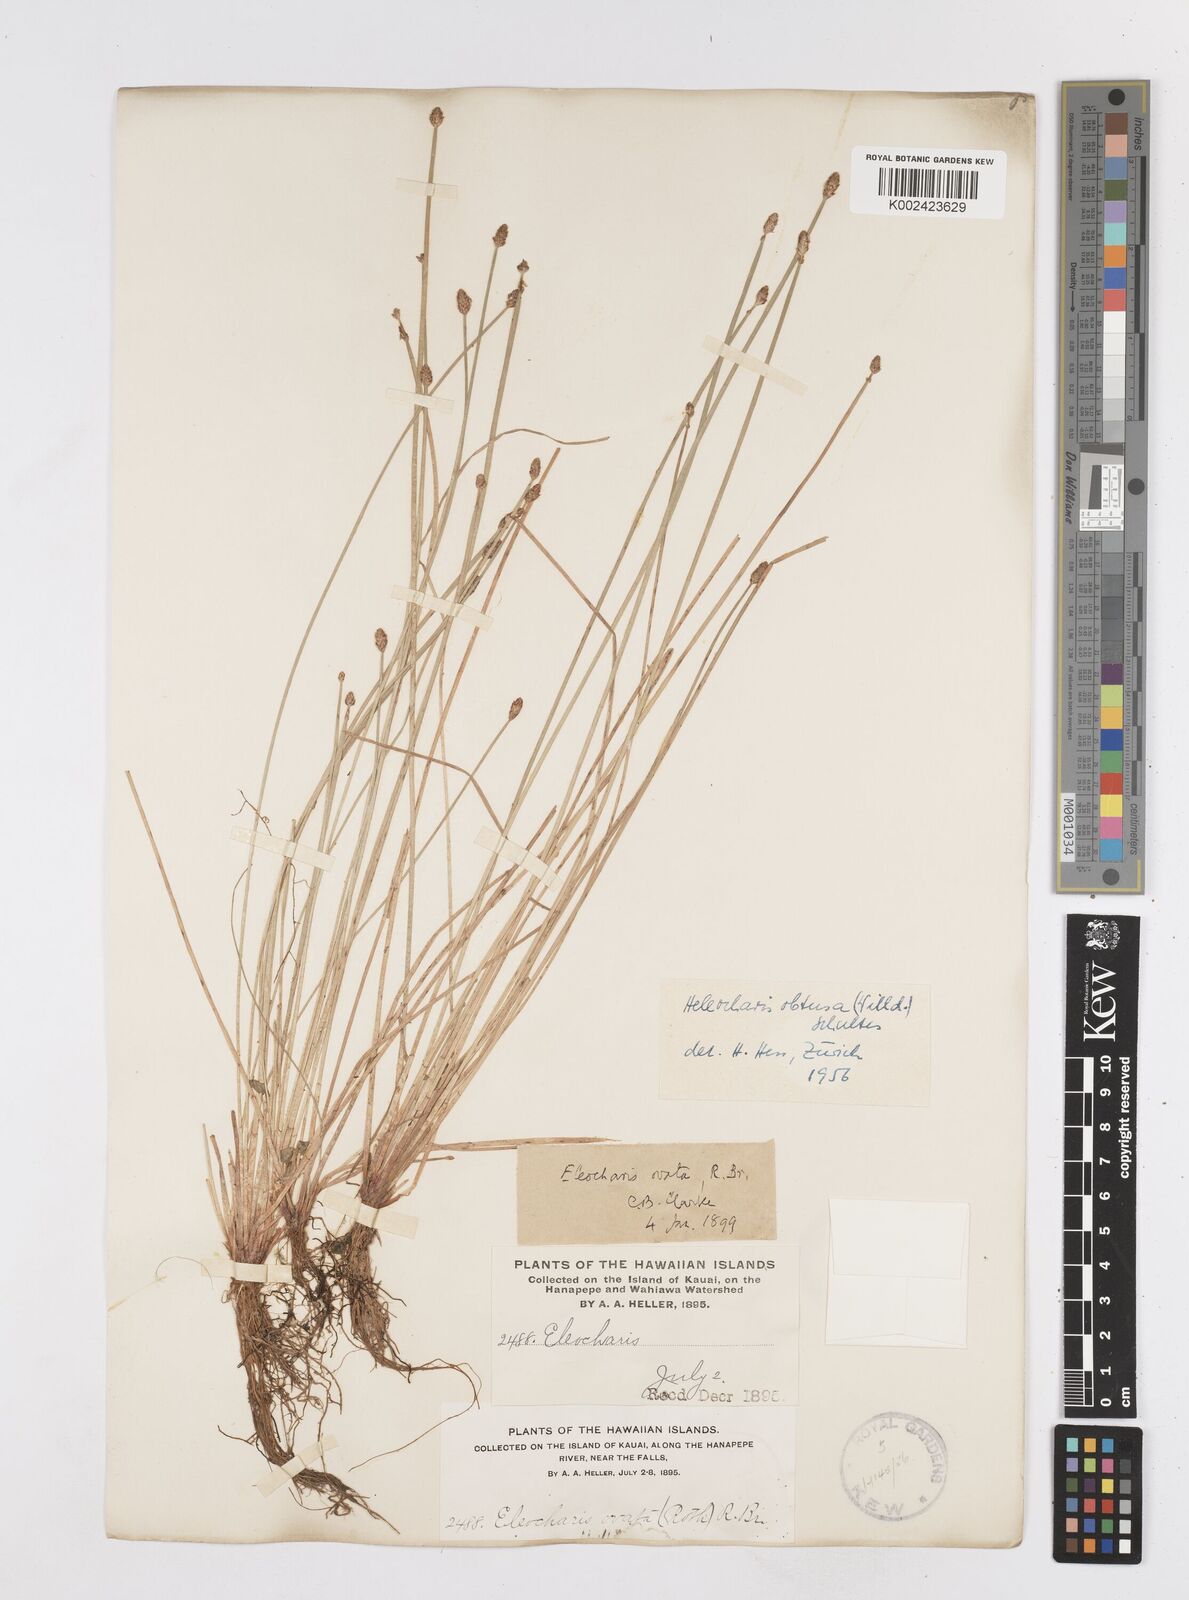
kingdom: Plantae
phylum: Tracheophyta
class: Liliopsida
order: Poales
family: Cyperaceae
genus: Eleocharis
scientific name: Eleocharis obtusa
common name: Blunt spikerush
